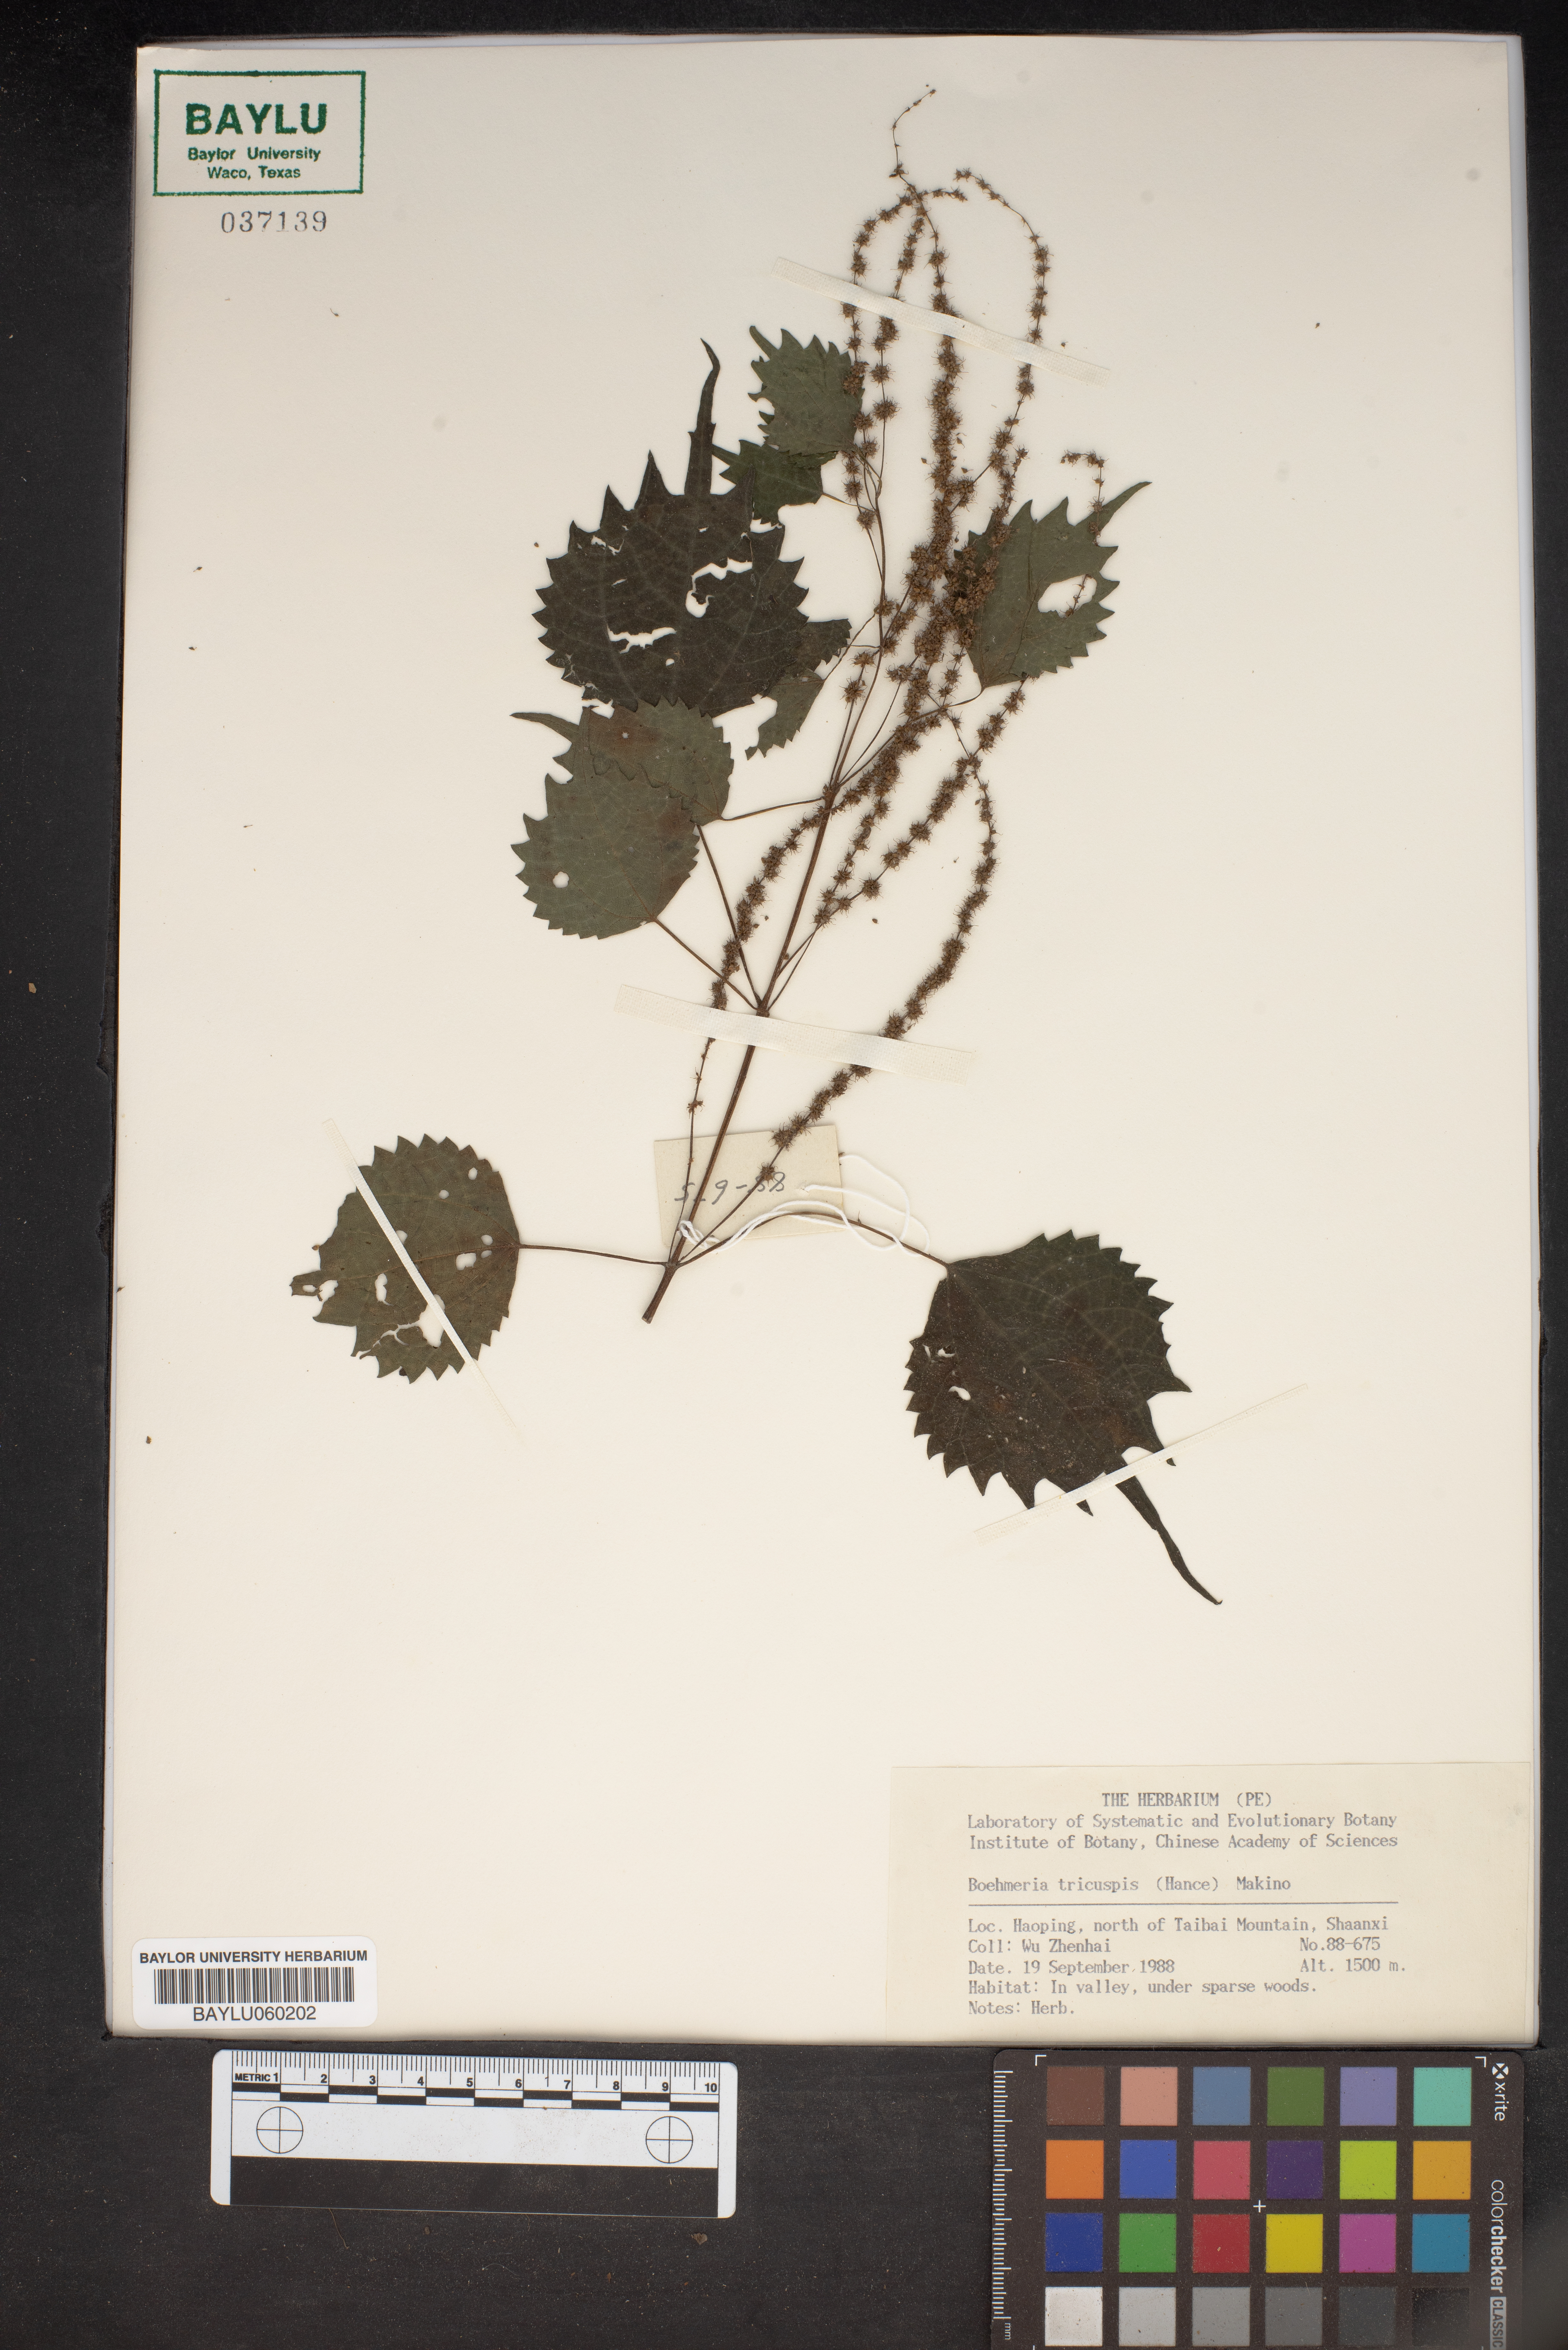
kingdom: Plantae
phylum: Tracheophyta
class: Magnoliopsida
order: Rosales
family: Urticaceae
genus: Boehmeria
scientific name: Boehmeria japonica
